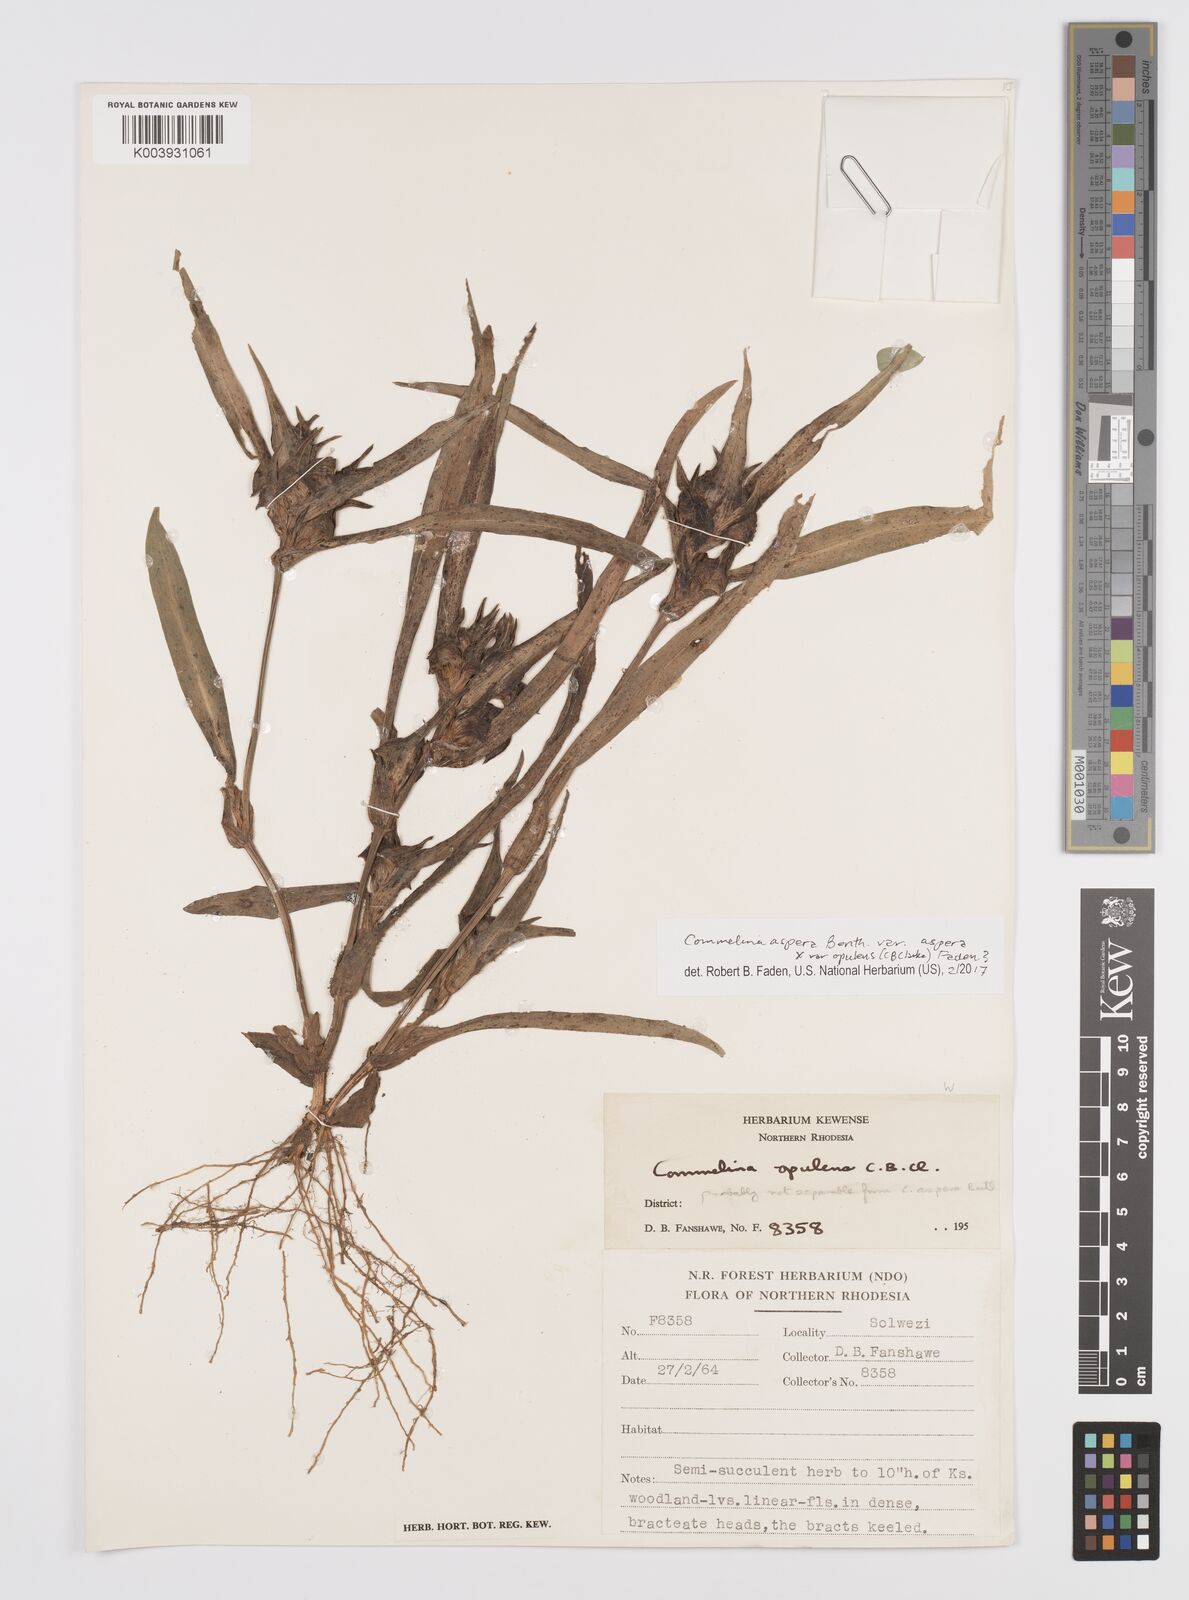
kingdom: Plantae
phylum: Tracheophyta
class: Liliopsida
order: Commelinales
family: Commelinaceae
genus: Commelina
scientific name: Commelina aspera
